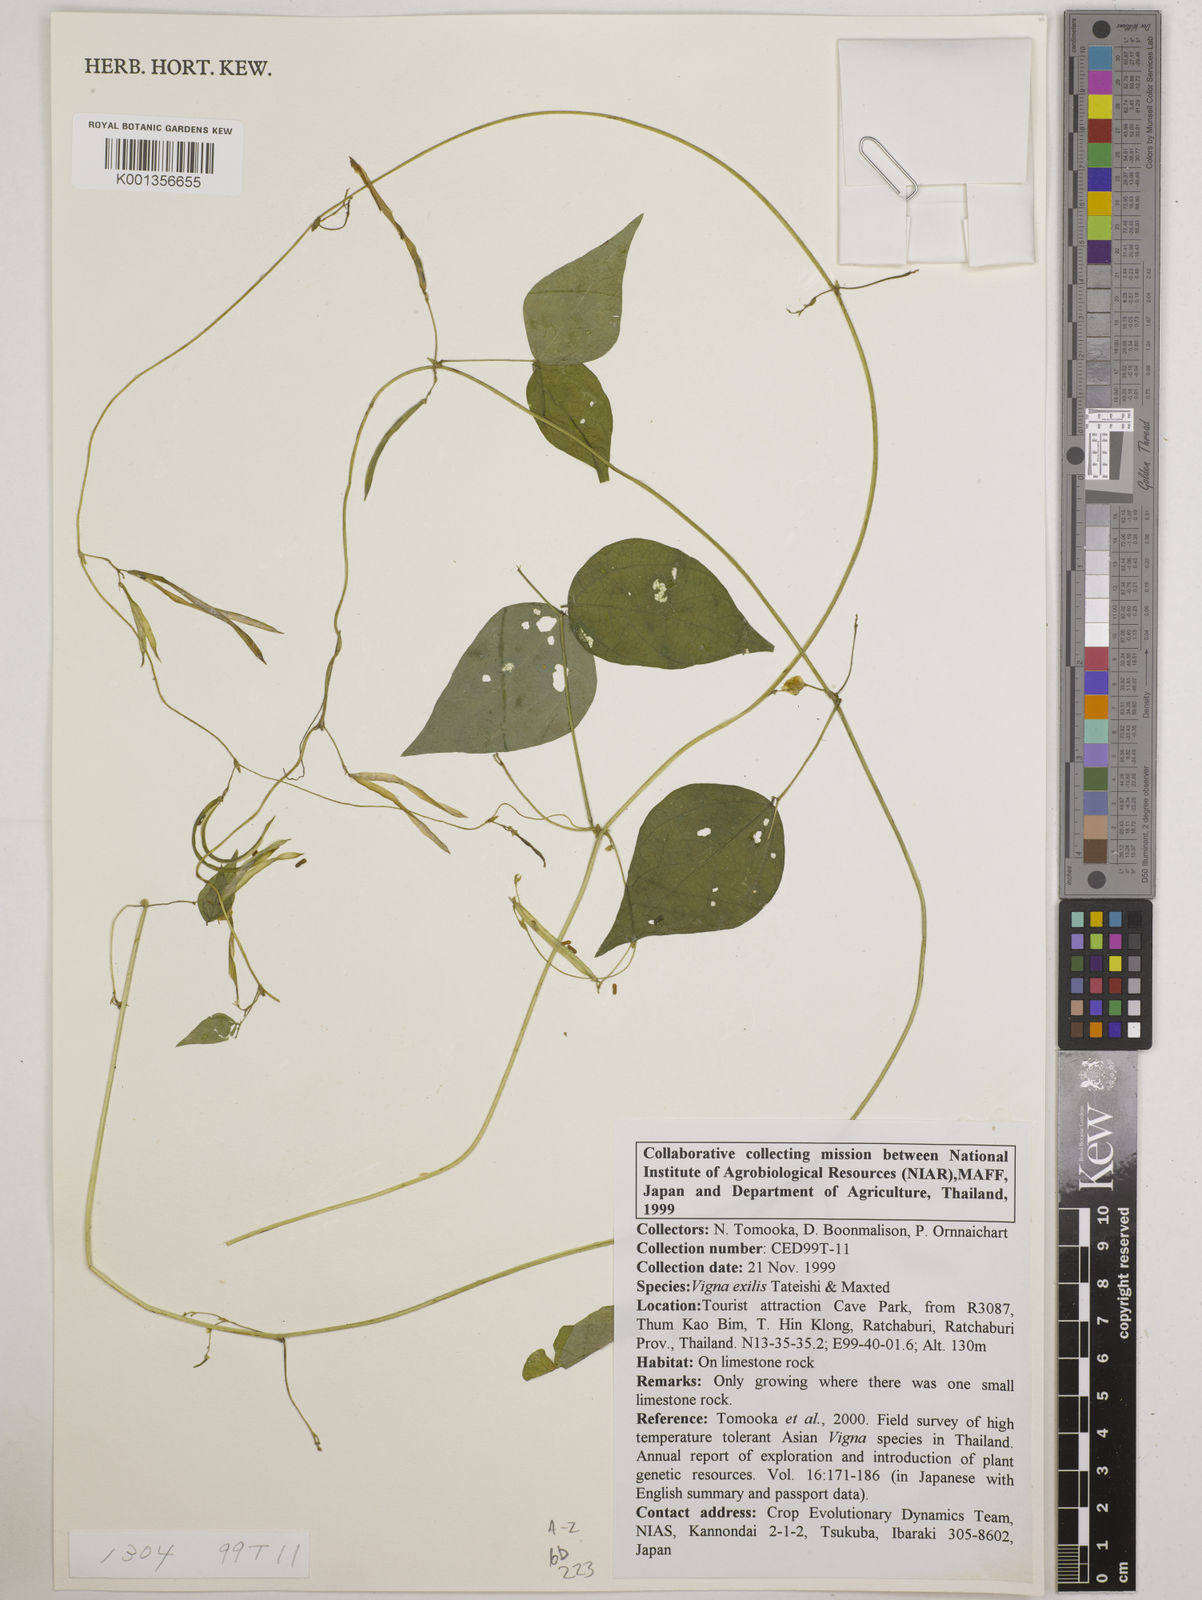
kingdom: Plantae
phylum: Tracheophyta
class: Magnoliopsida
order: Fabales
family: Fabaceae
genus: Vigna
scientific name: Vigna
